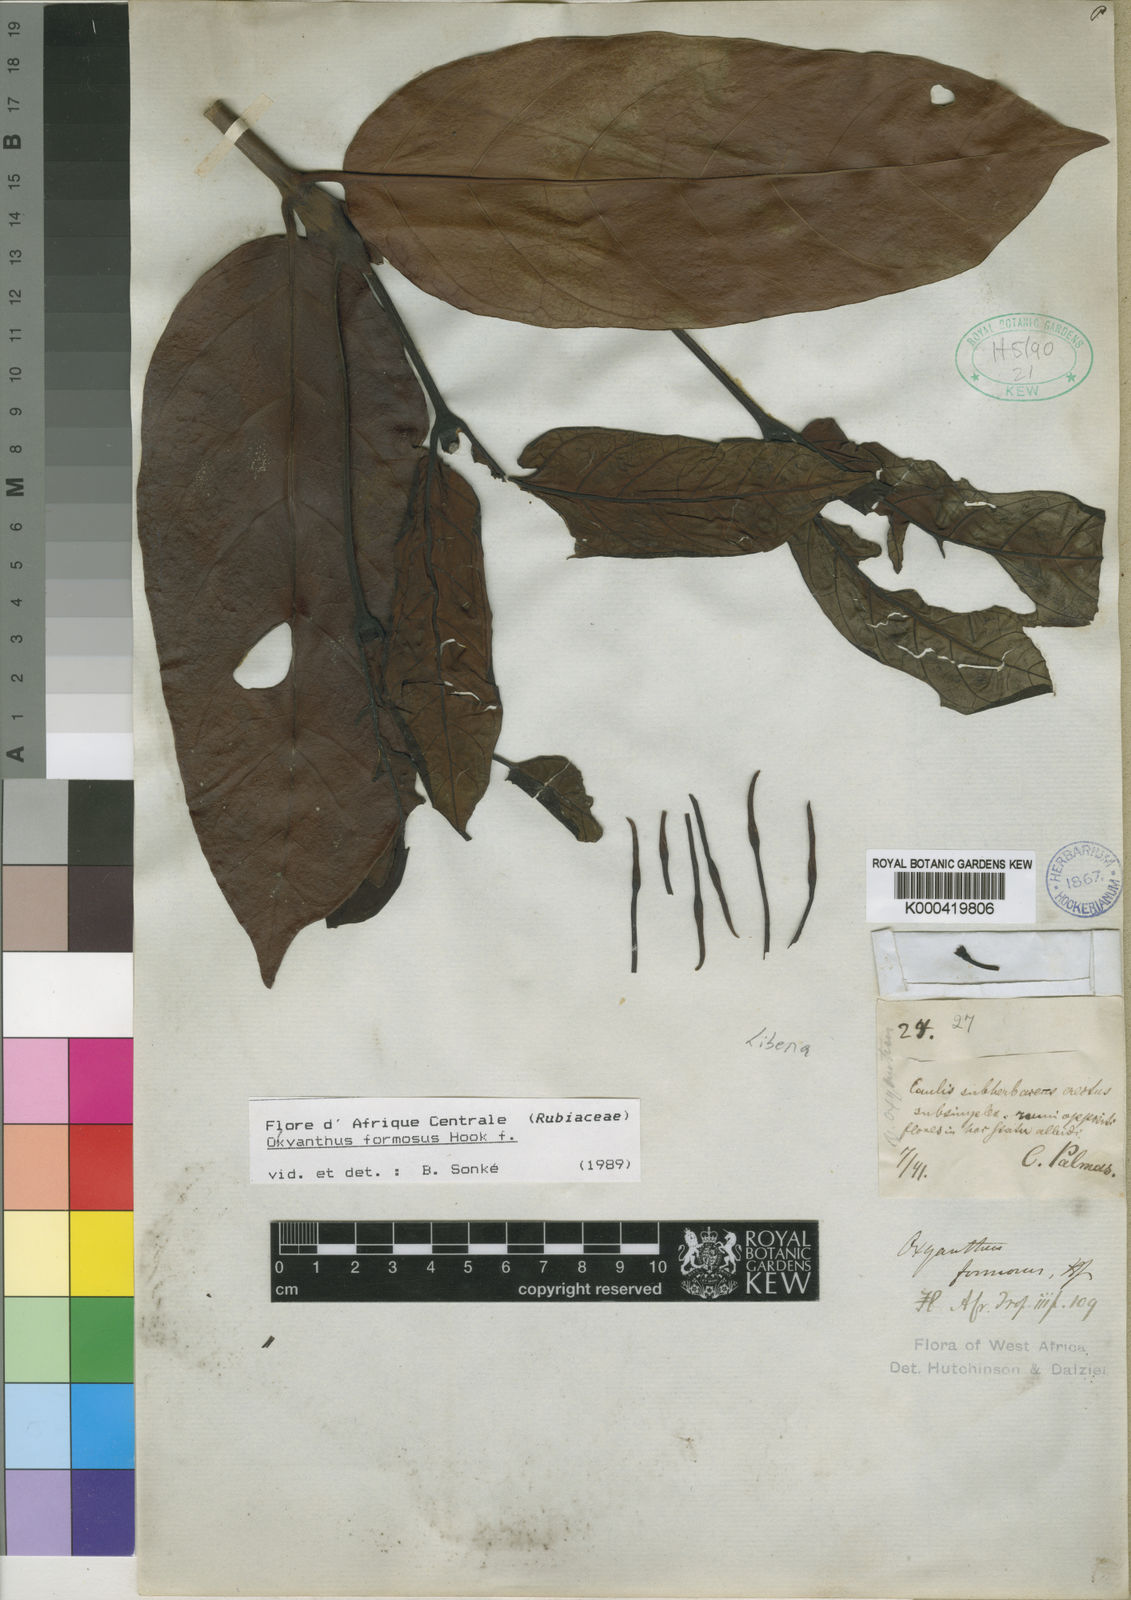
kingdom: Plantae
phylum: Tracheophyta
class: Magnoliopsida
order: Gentianales
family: Rubiaceae
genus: Oxyanthus
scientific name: Oxyanthus formosus
